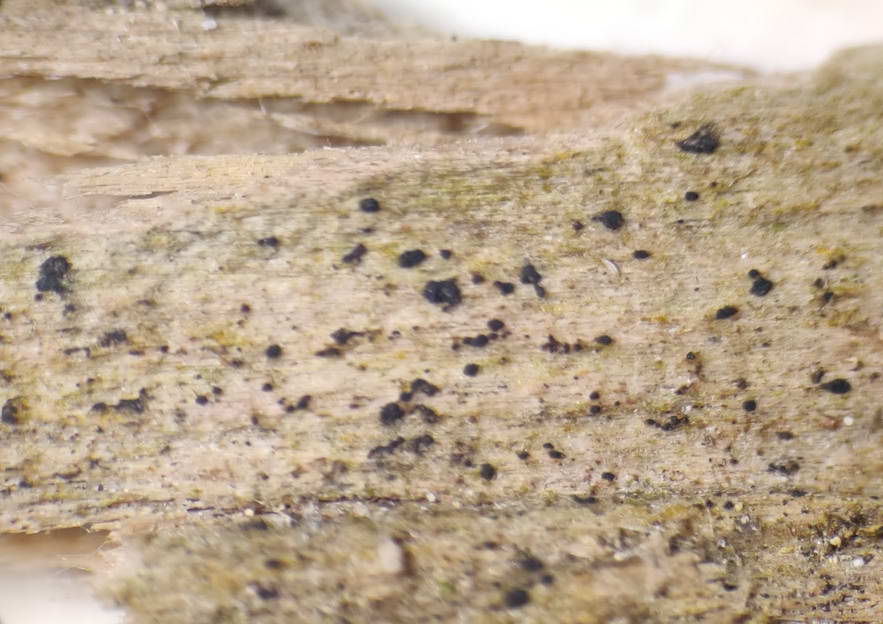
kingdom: Fungi
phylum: Ascomycota
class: Leotiomycetes
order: Helotiales
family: Hyaloscyphaceae
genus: Eupezizella
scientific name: Eupezizella aureliella
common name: almindelig klarskive
